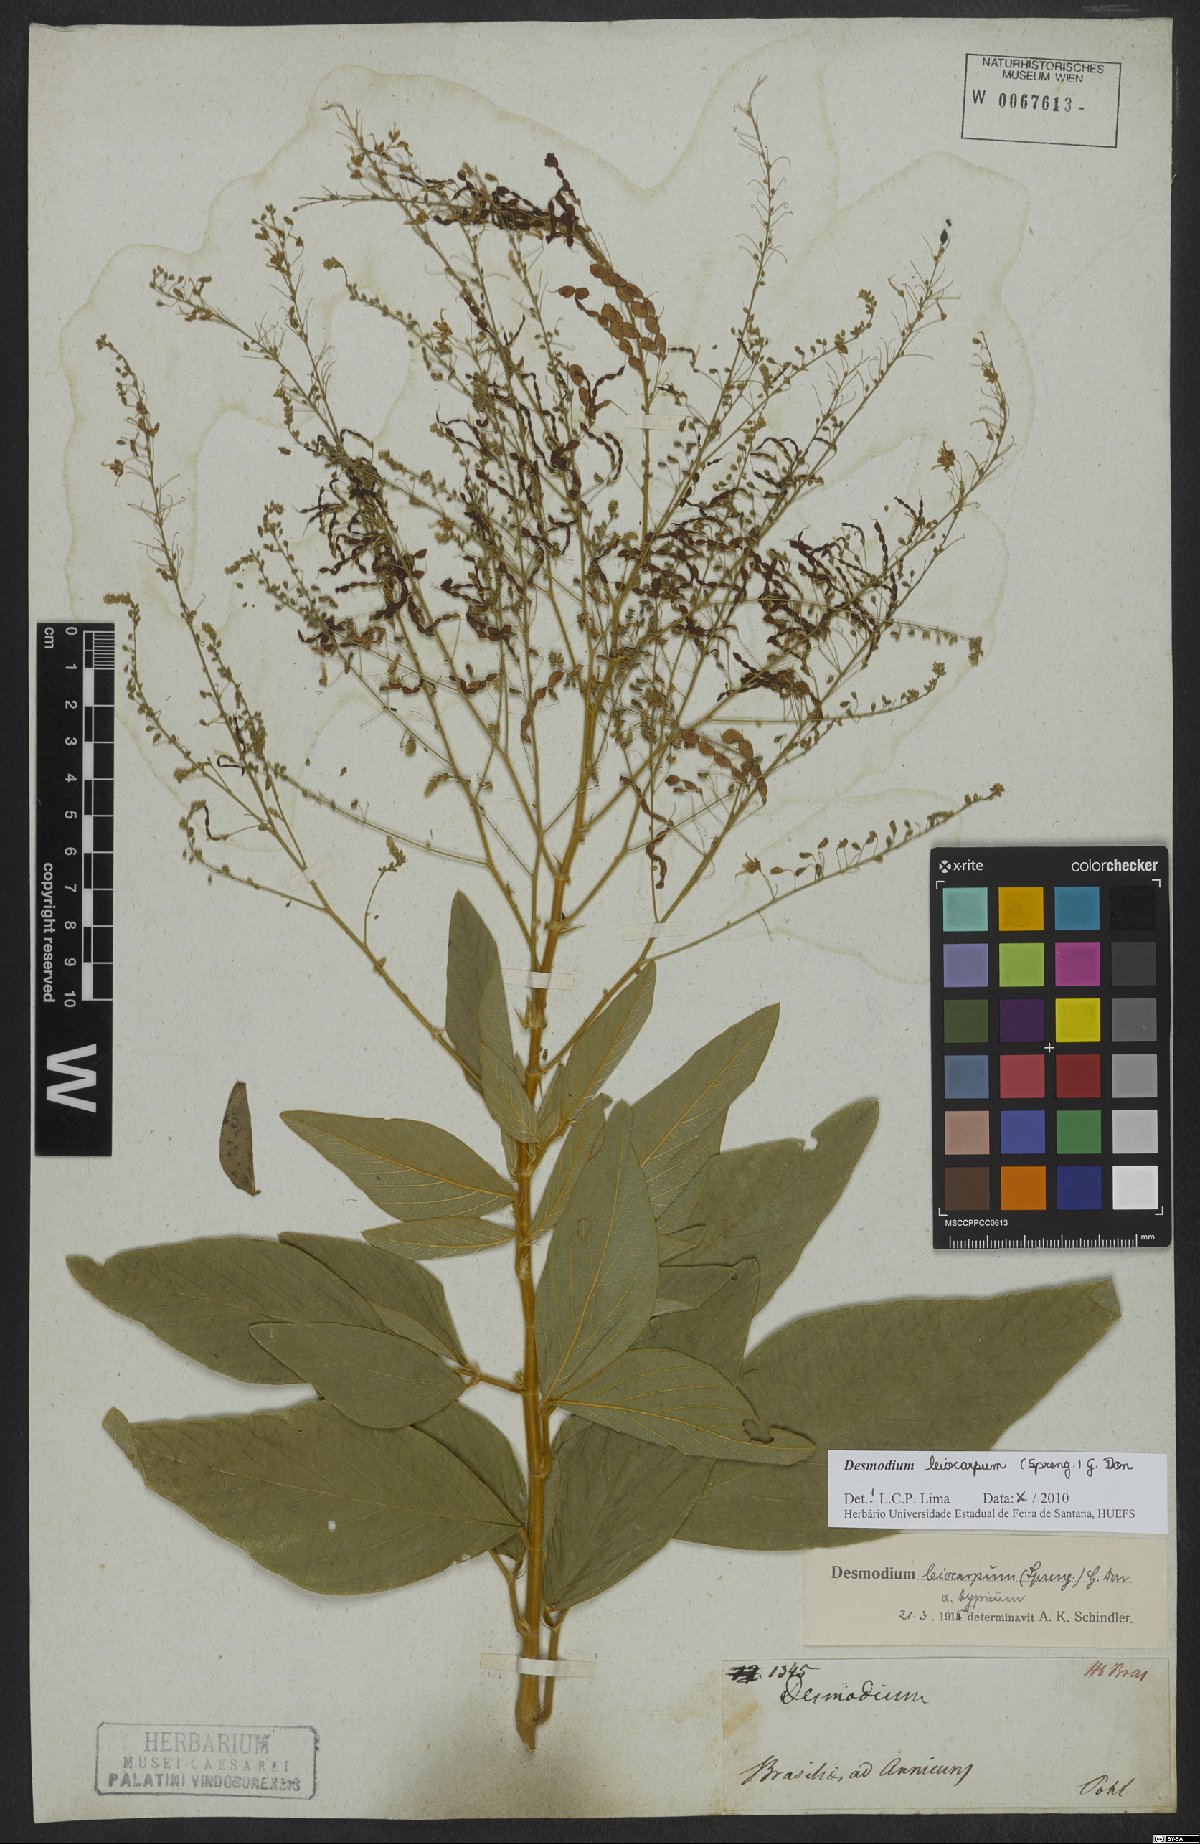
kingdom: Plantae
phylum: Tracheophyta
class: Magnoliopsida
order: Fabales
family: Fabaceae
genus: Desmodium
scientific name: Desmodium leiocarpum
